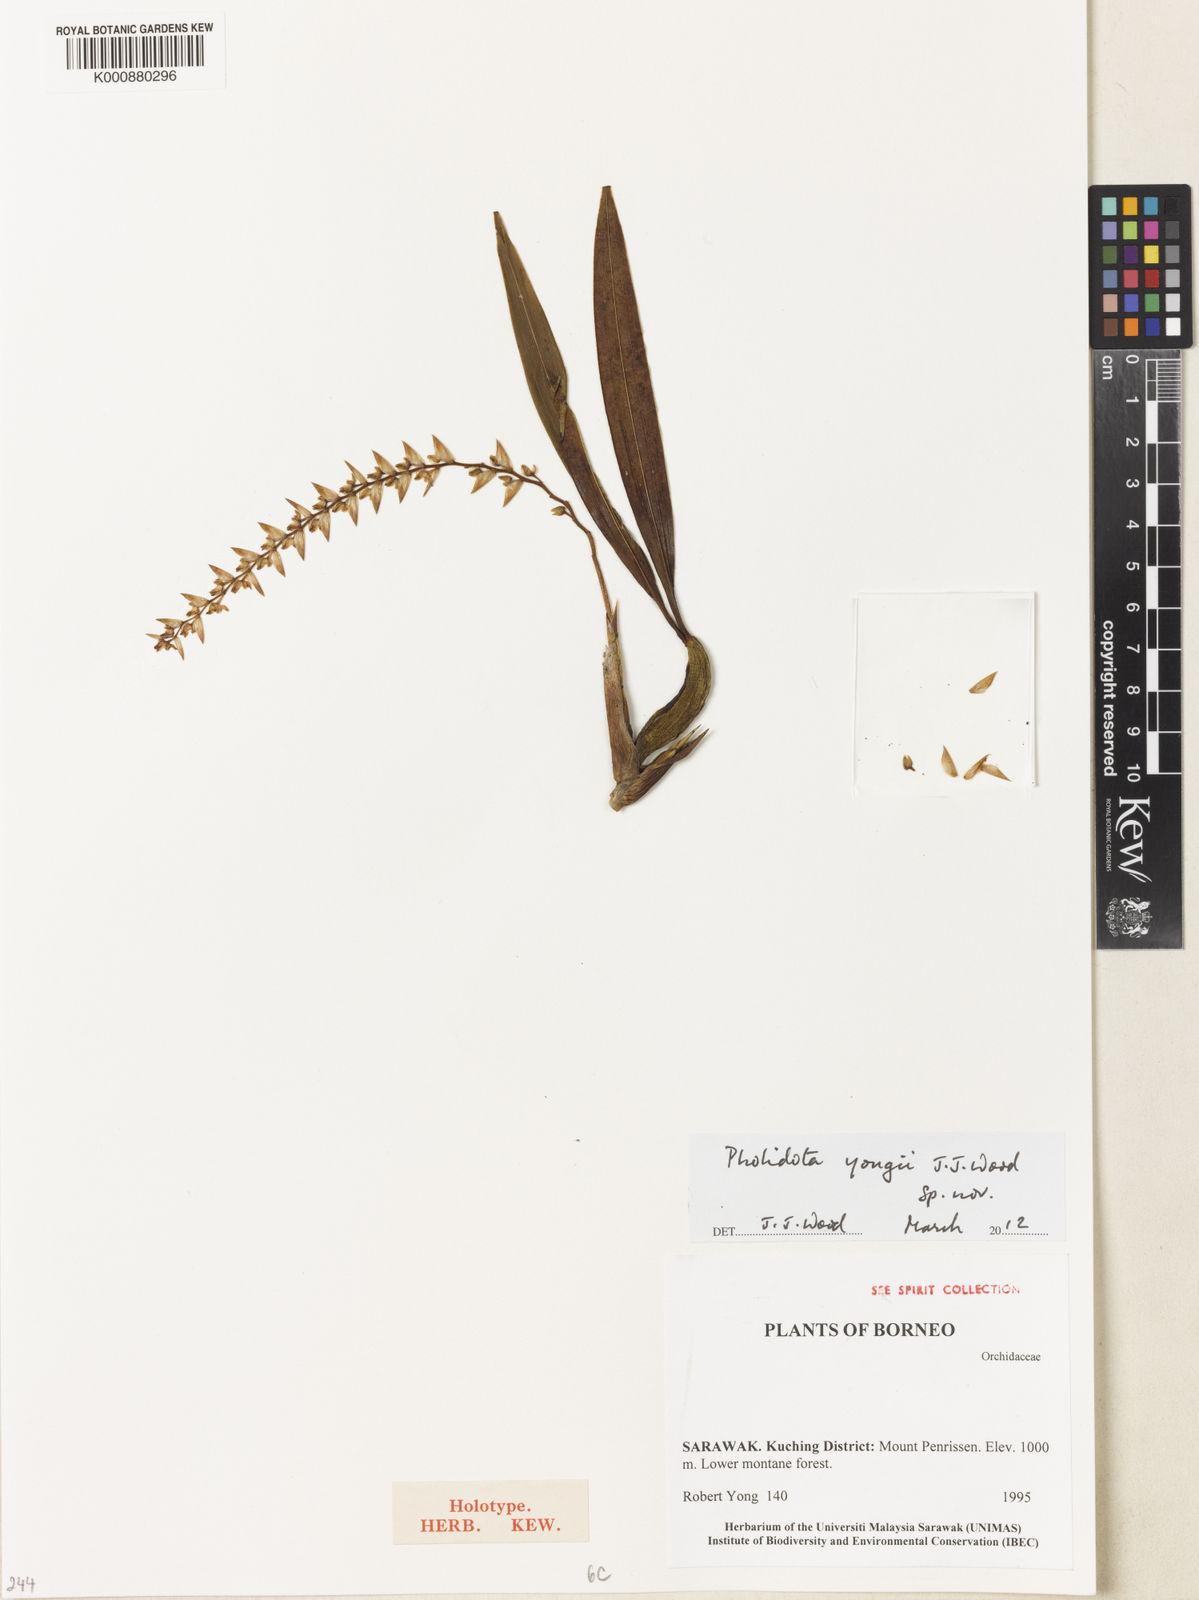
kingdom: Plantae
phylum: Tracheophyta
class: Liliopsida
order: Asparagales
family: Orchidaceae
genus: Coelogyne
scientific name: Coelogyne yongii
